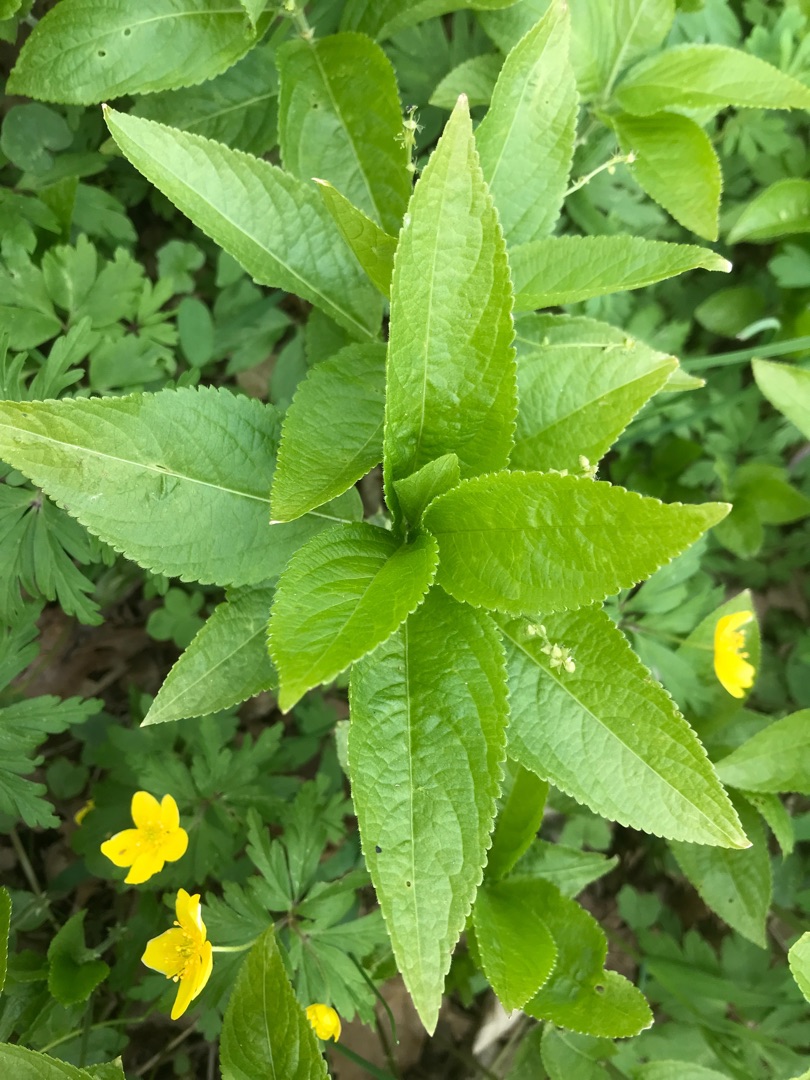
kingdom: Plantae
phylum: Tracheophyta
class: Magnoliopsida
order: Malpighiales
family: Euphorbiaceae
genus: Mercurialis
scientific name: Mercurialis perennis
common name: Almindelig bingelurt
